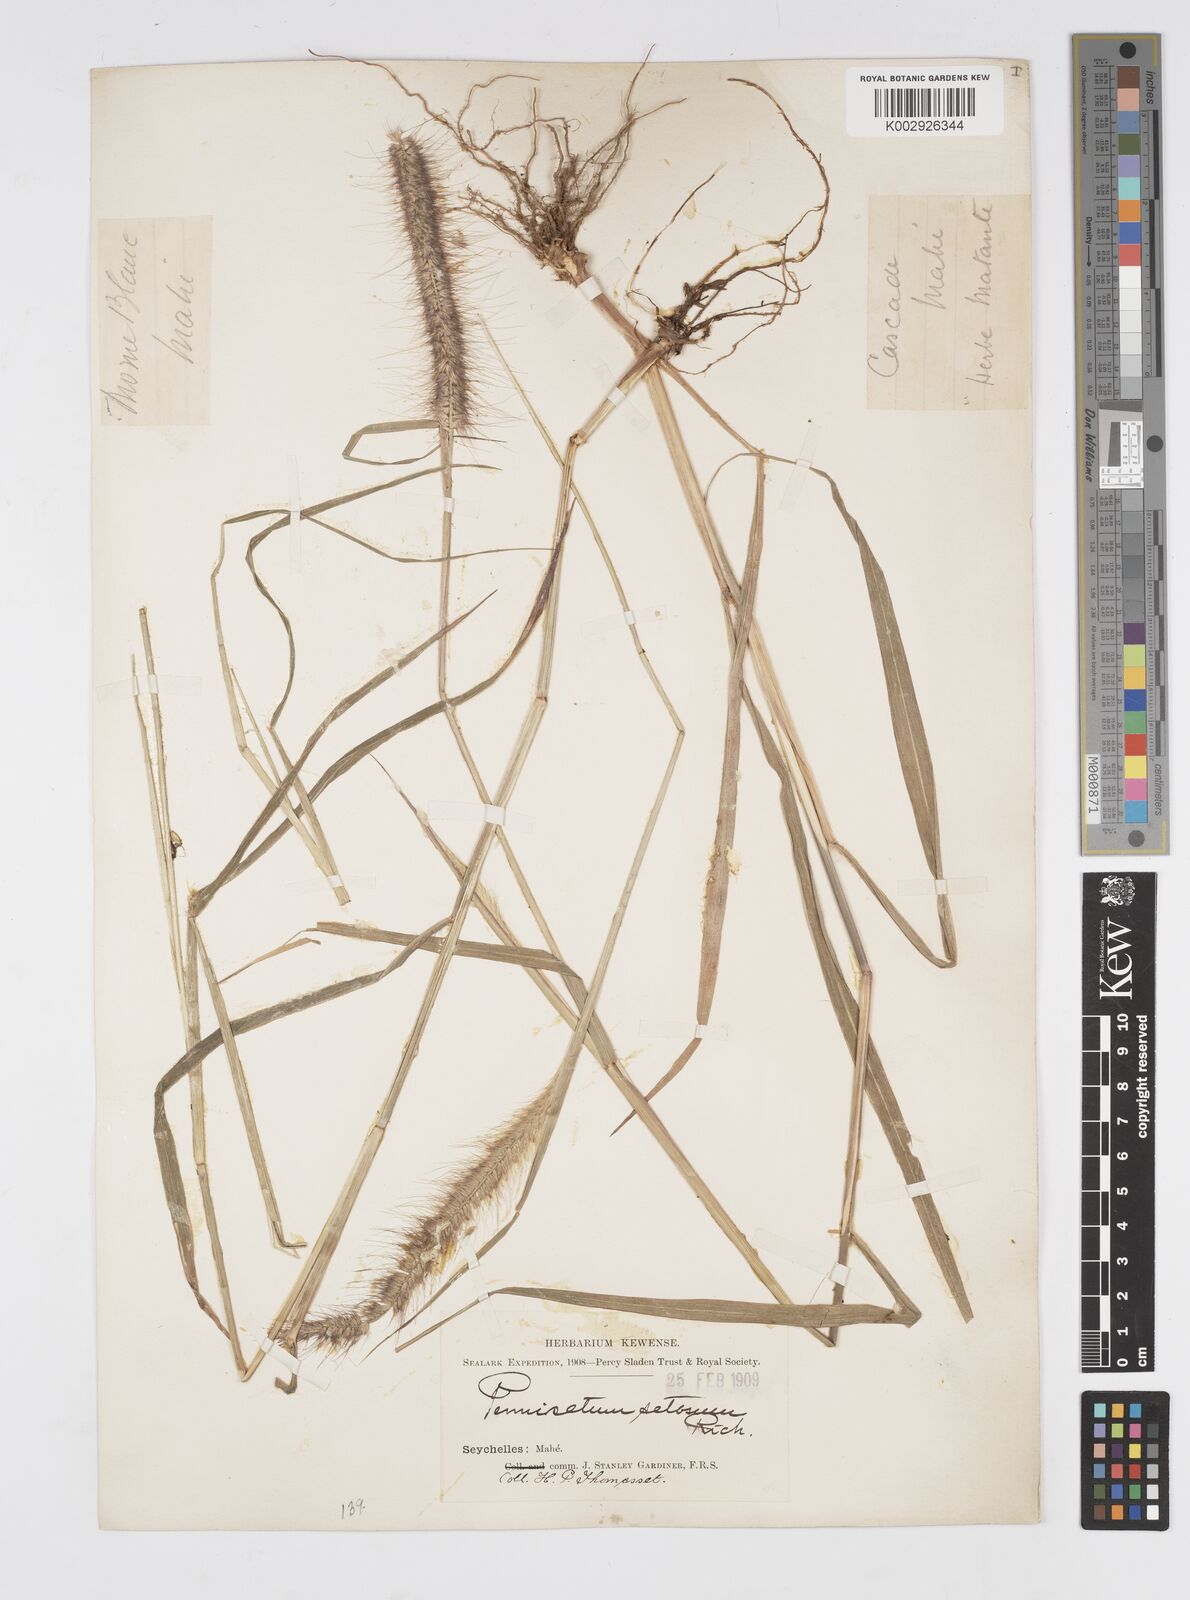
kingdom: Plantae
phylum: Tracheophyta
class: Liliopsida
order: Poales
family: Poaceae
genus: Setaria
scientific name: Setaria parviflora
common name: Knotroot bristle-grass
